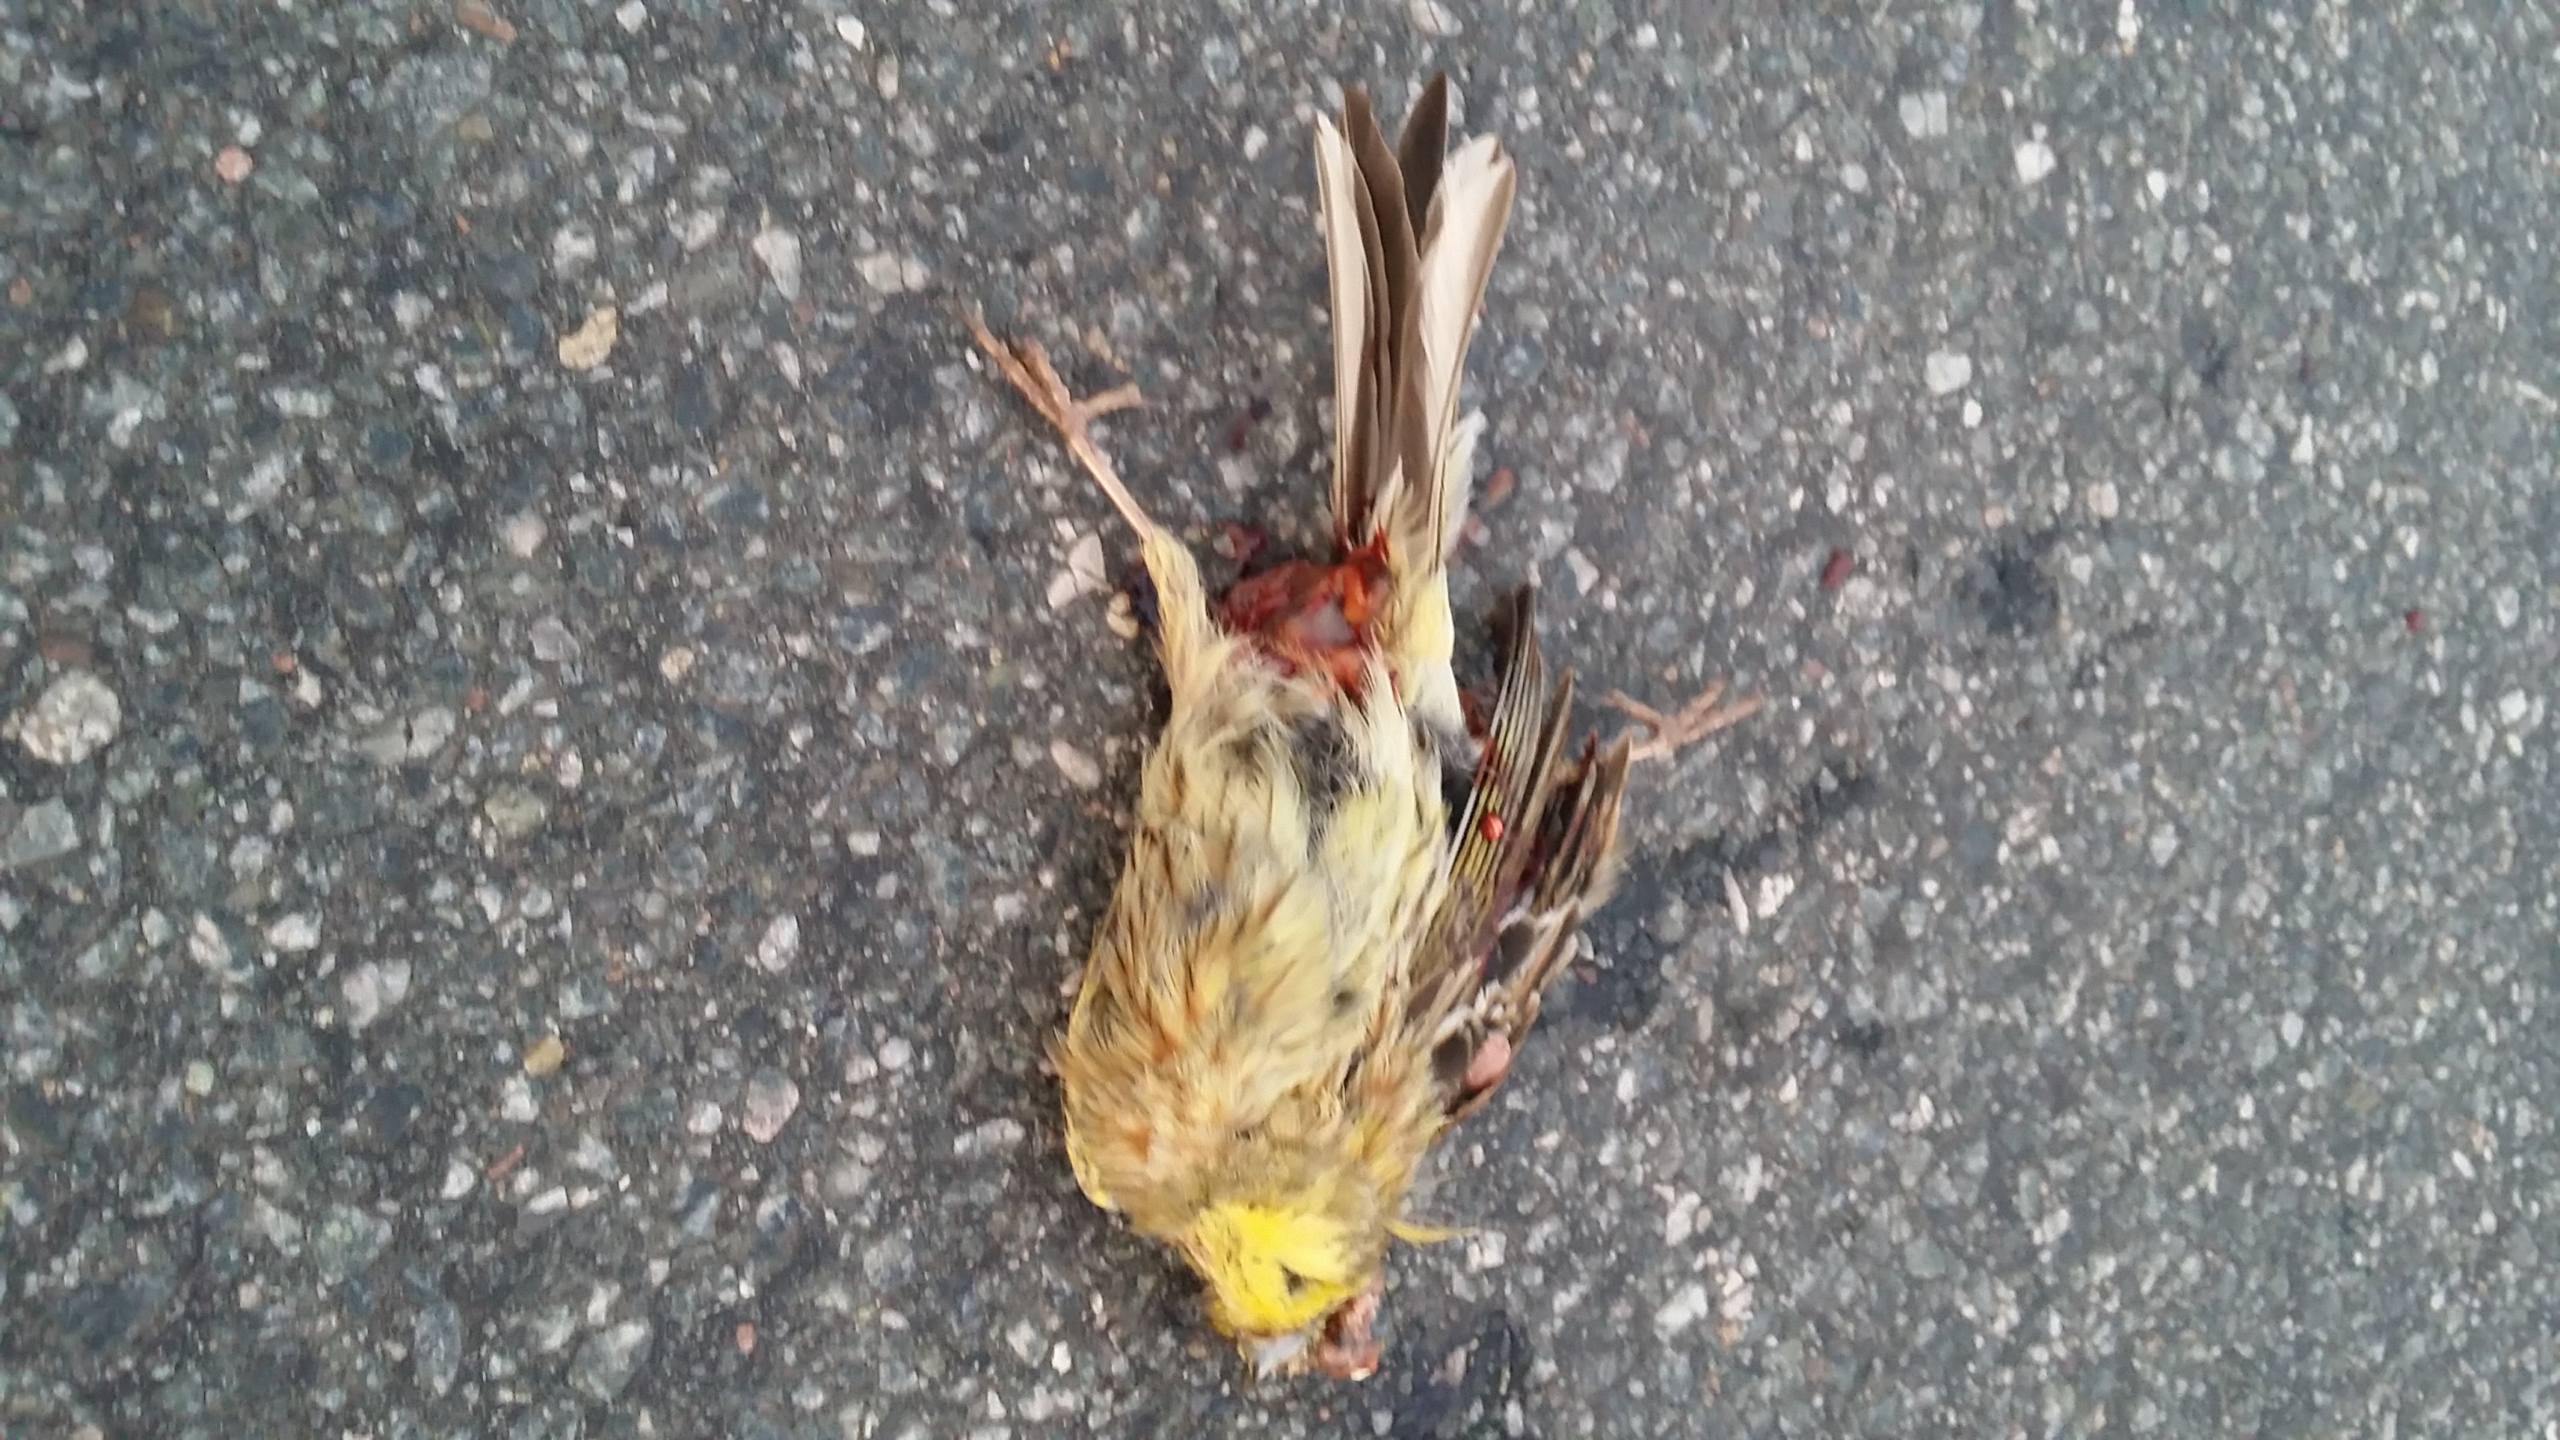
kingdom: Animalia
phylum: Chordata
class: Aves
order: Passeriformes
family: Emberizidae
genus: Emberiza
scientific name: Emberiza citrinella
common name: Gulspurv
